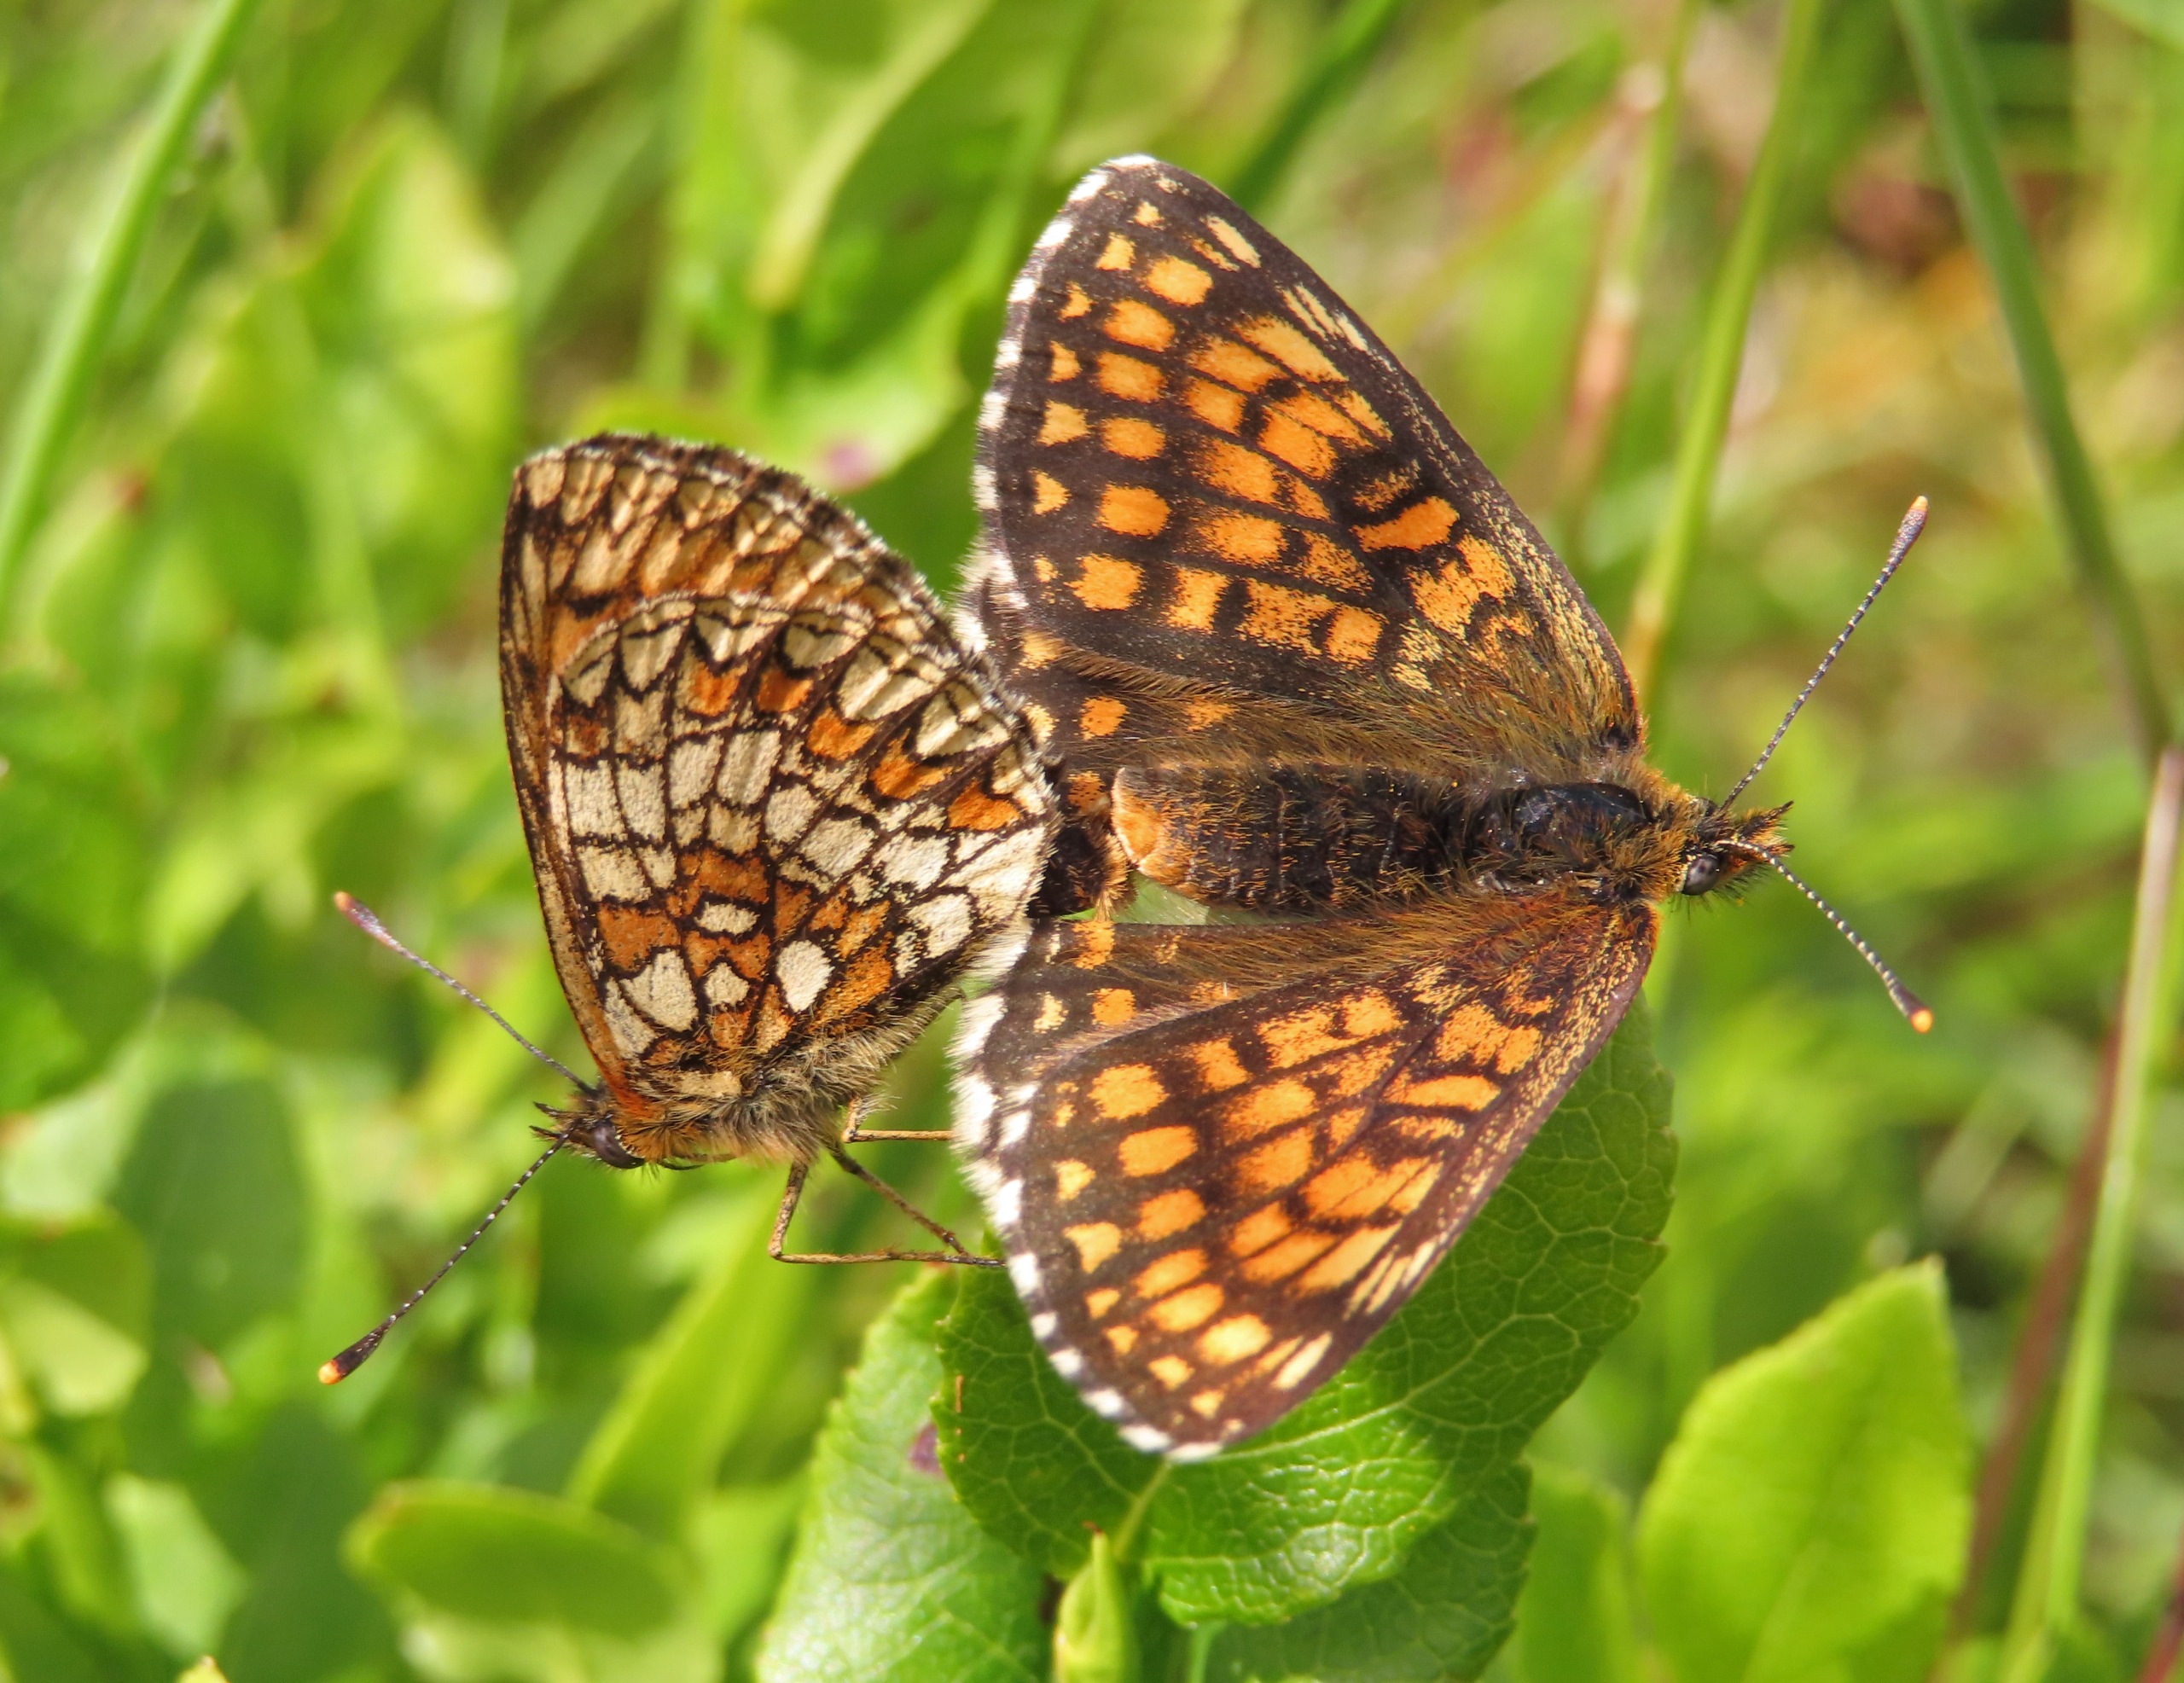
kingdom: Animalia
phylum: Arthropoda
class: Insecta
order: Lepidoptera
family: Nymphalidae
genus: Mellicta
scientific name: Mellicta athalia
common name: Brun pletvinge
